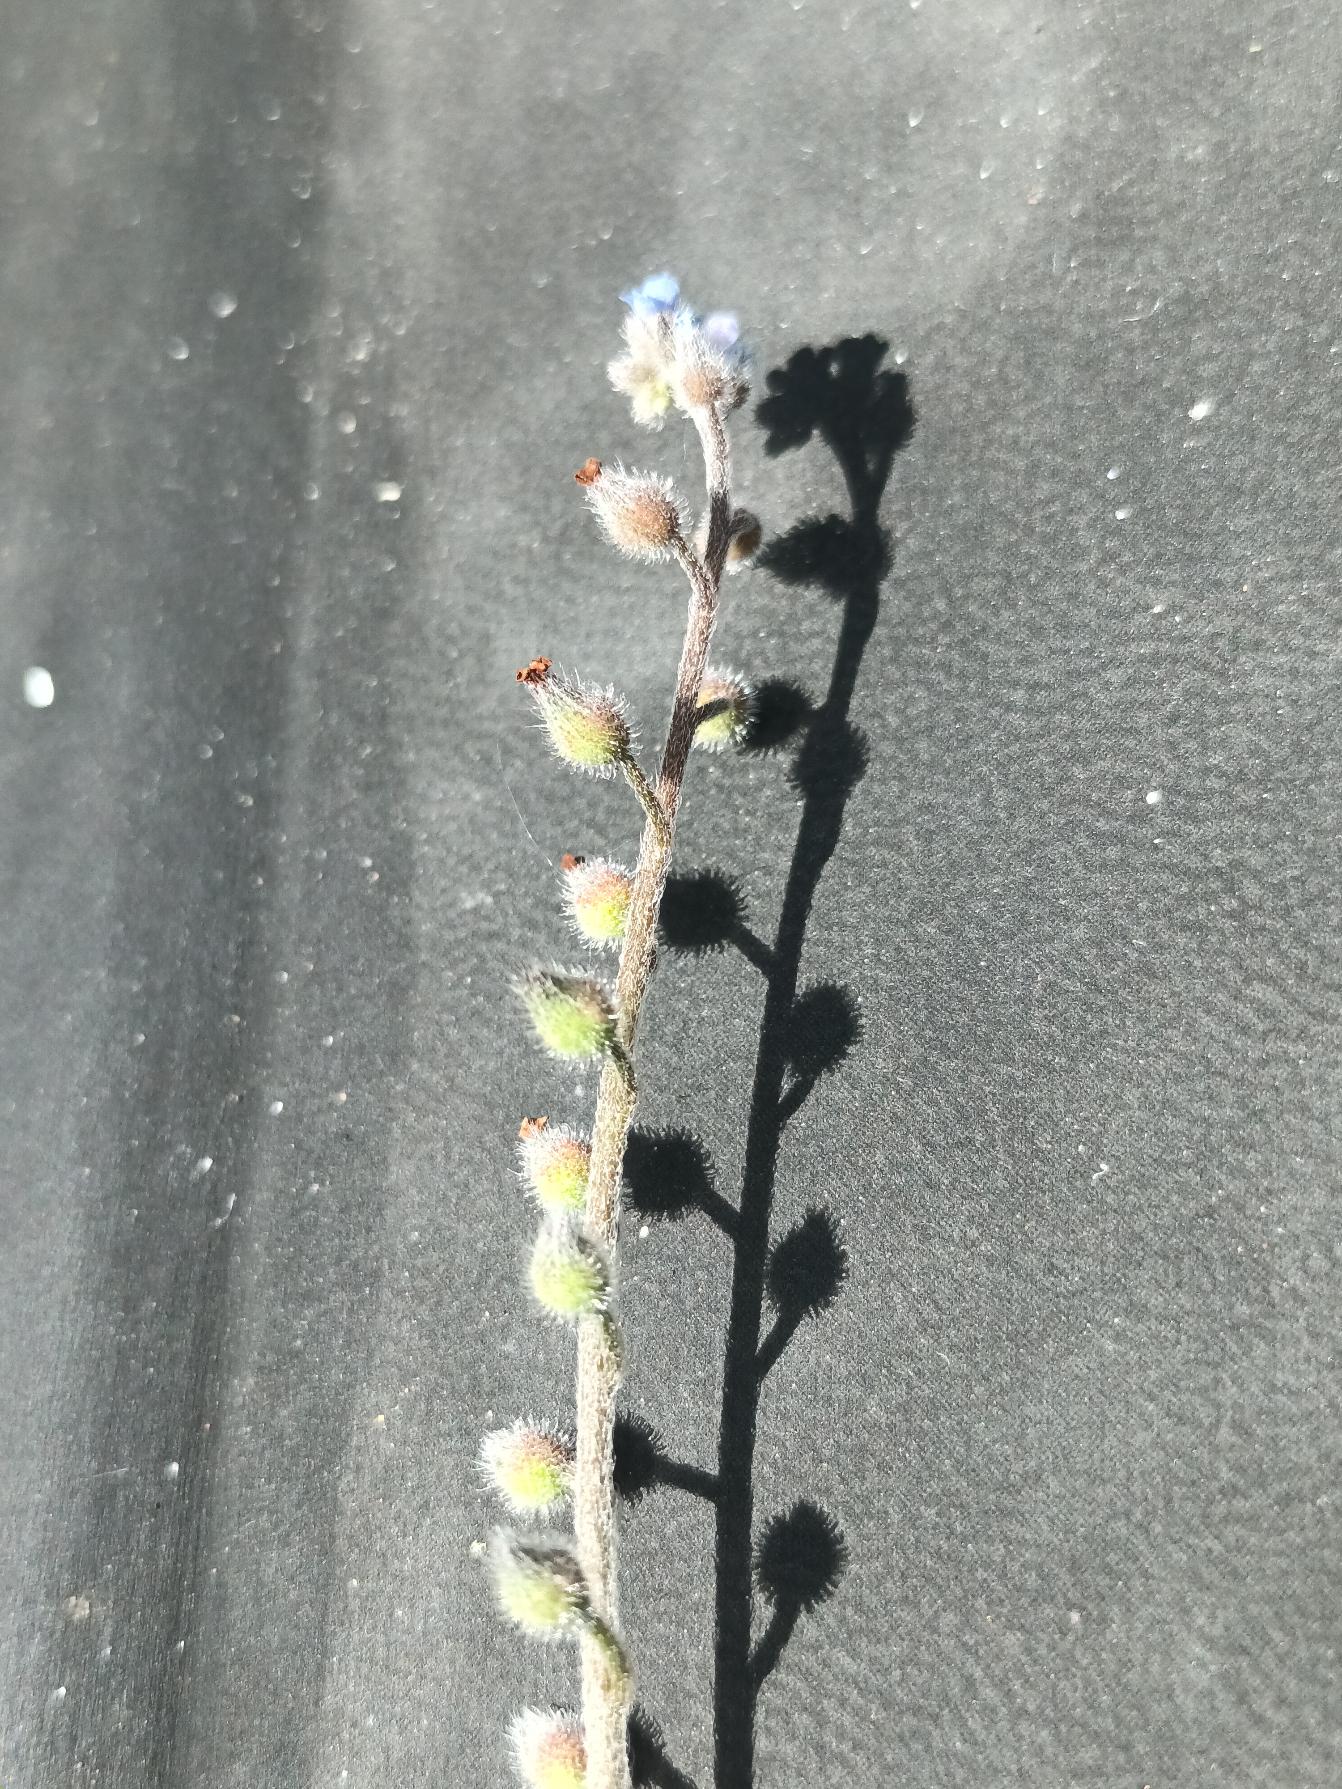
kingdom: Plantae
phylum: Tracheophyta
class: Magnoliopsida
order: Boraginales
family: Boraginaceae
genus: Myosotis
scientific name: Myosotis ramosissima
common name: Bakke-forglemmigej
